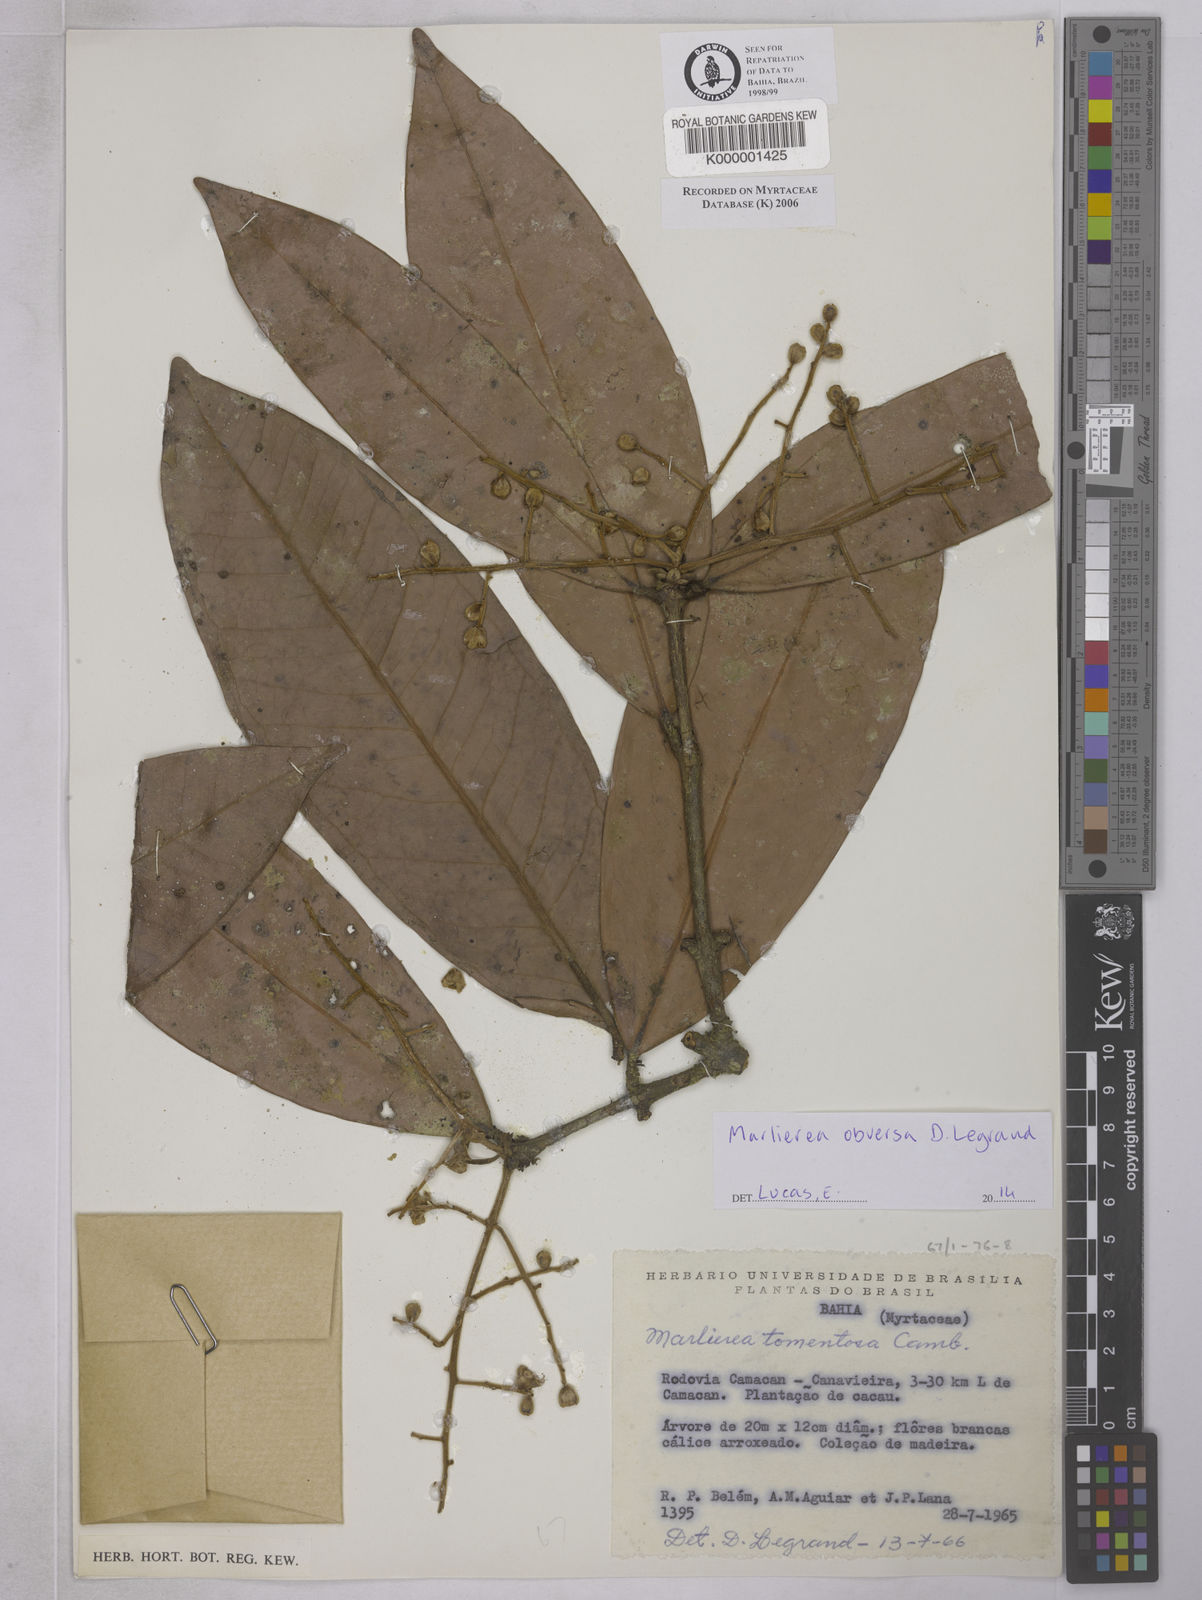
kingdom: Plantae
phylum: Tracheophyta
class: Magnoliopsida
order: Myrtales
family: Myrtaceae
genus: Myrcia
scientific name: Myrcia neotomentosa
